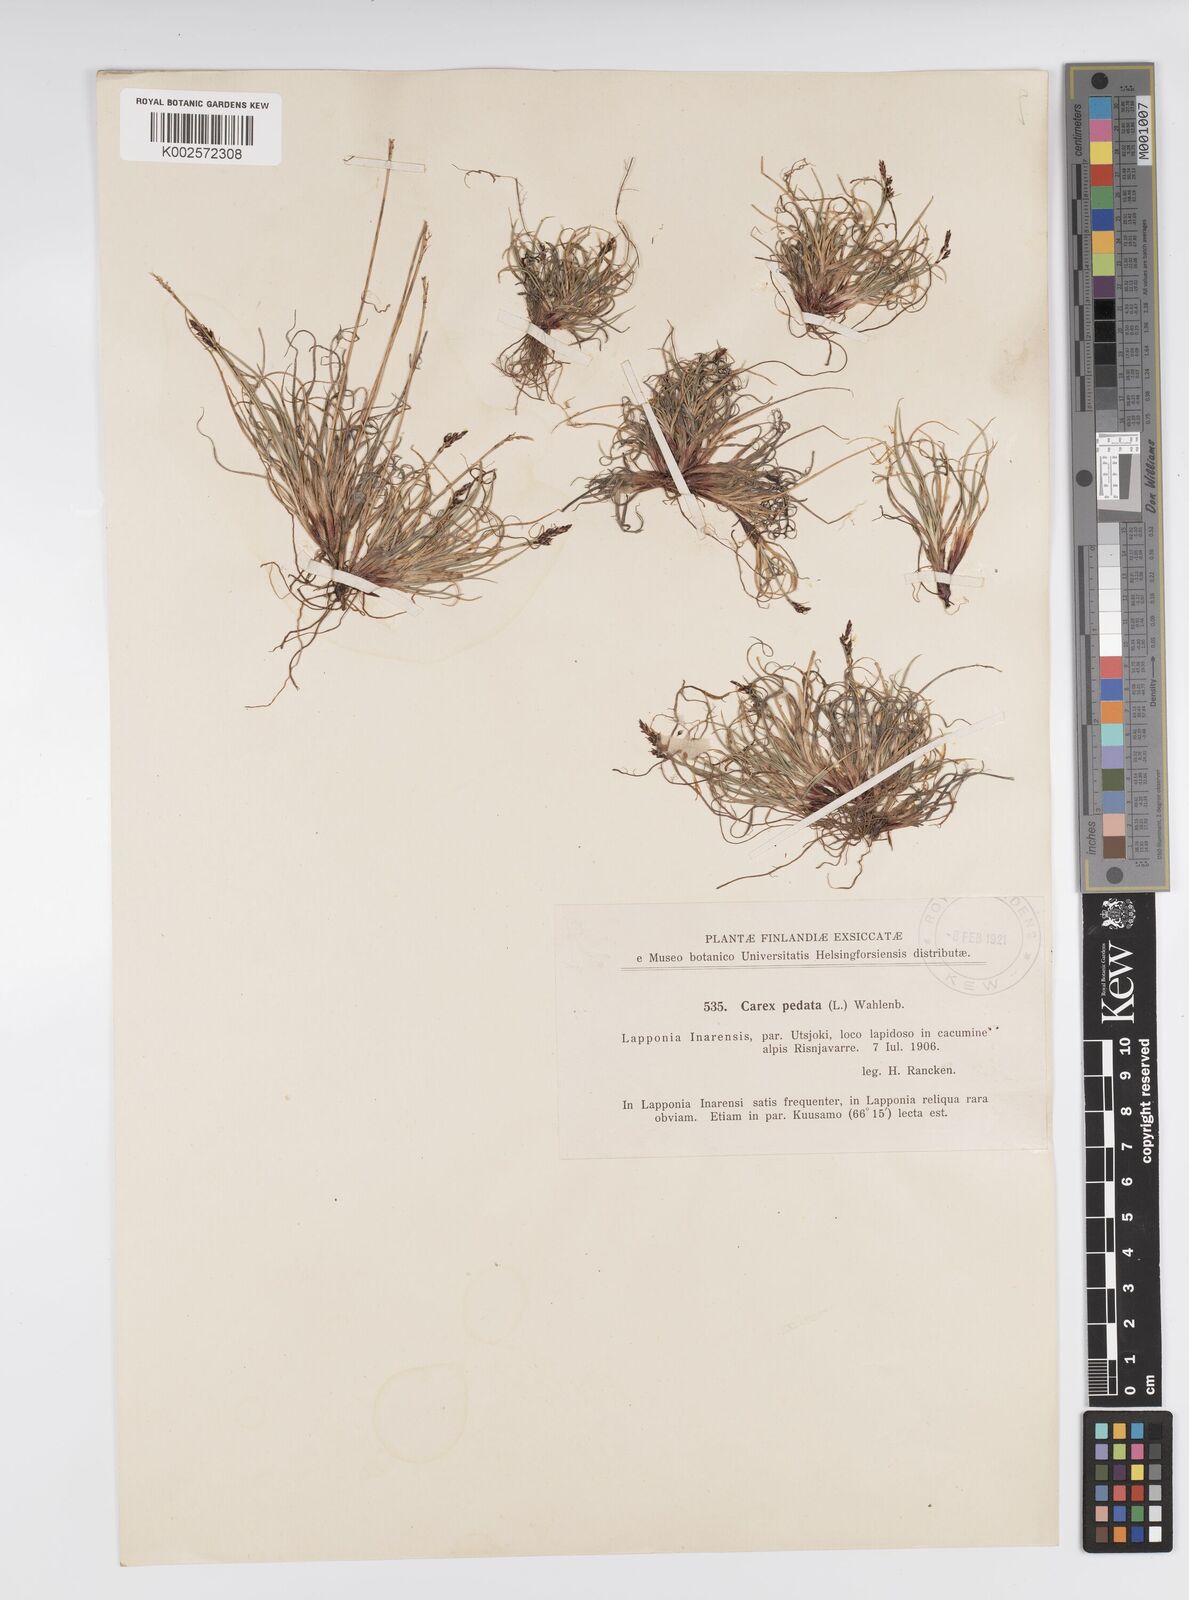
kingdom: Plantae
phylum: Tracheophyta
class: Liliopsida
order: Poales
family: Cyperaceae
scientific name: Cyperaceae
